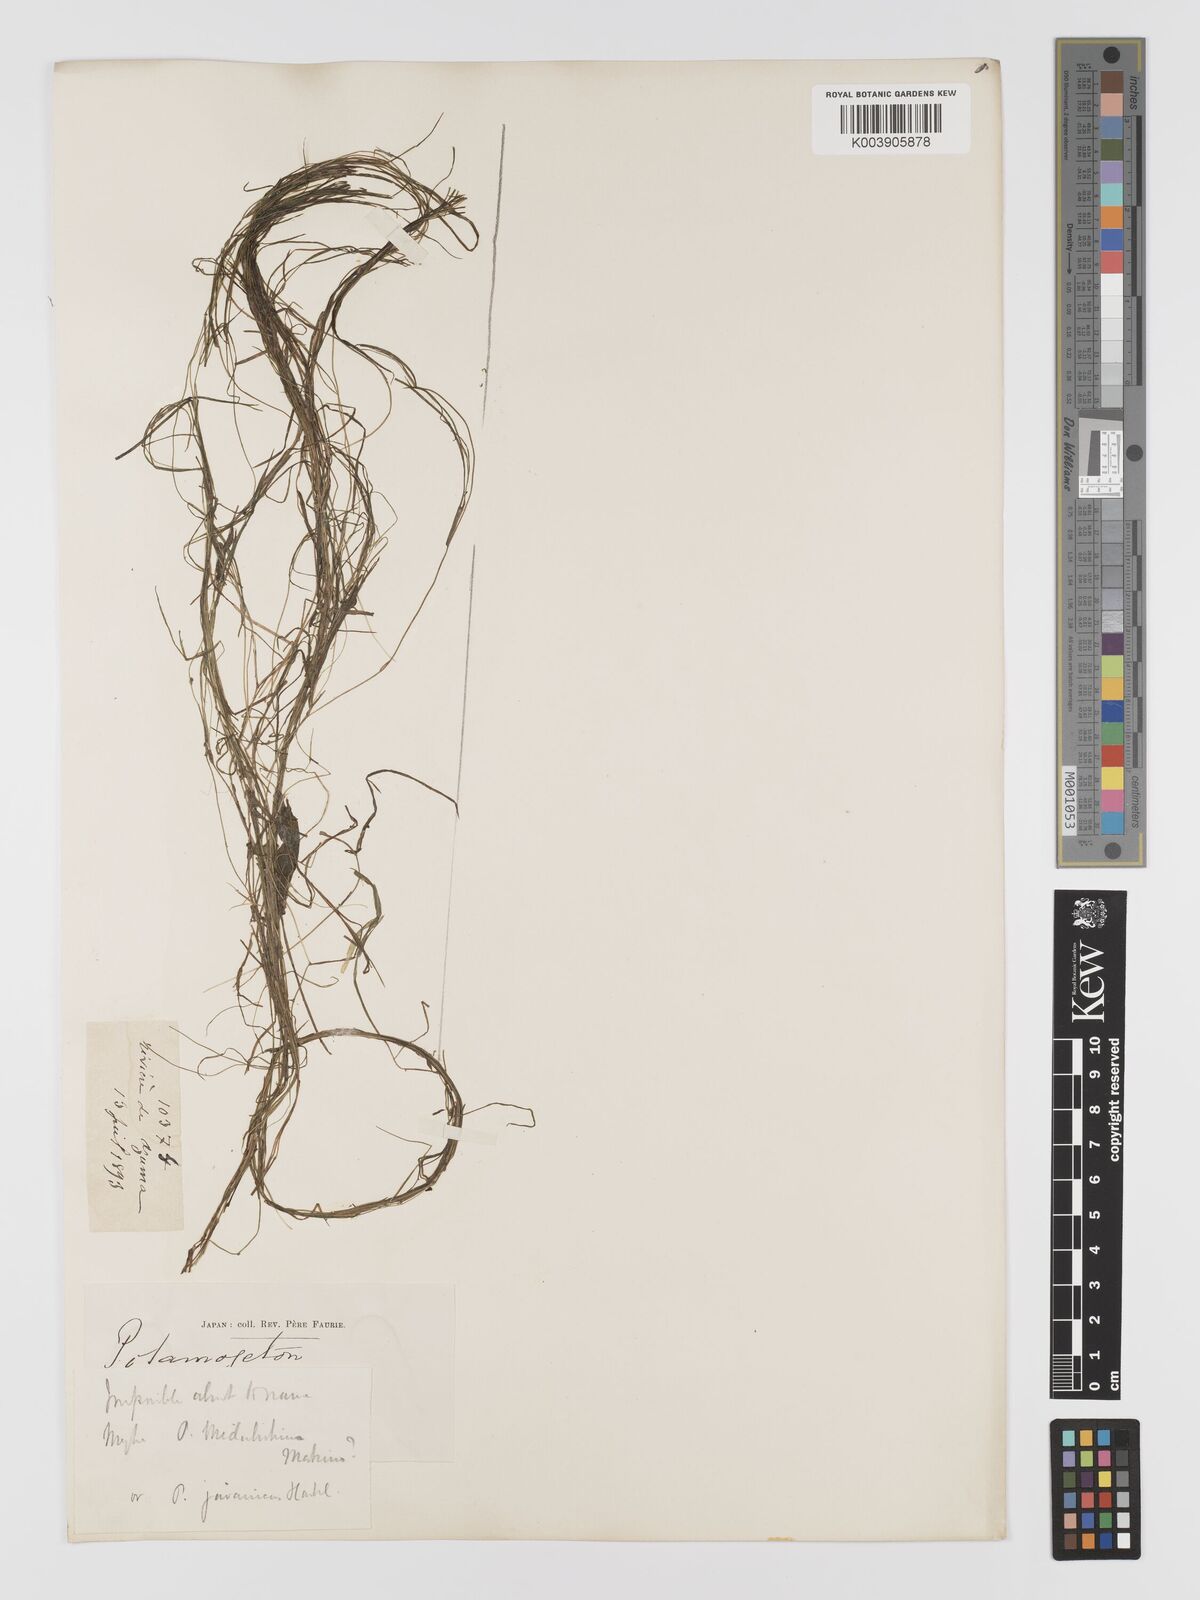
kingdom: Plantae
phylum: Tracheophyta
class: Liliopsida
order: Alismatales
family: Potamogetonaceae
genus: Potamogeton
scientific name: Potamogeton octandrus
